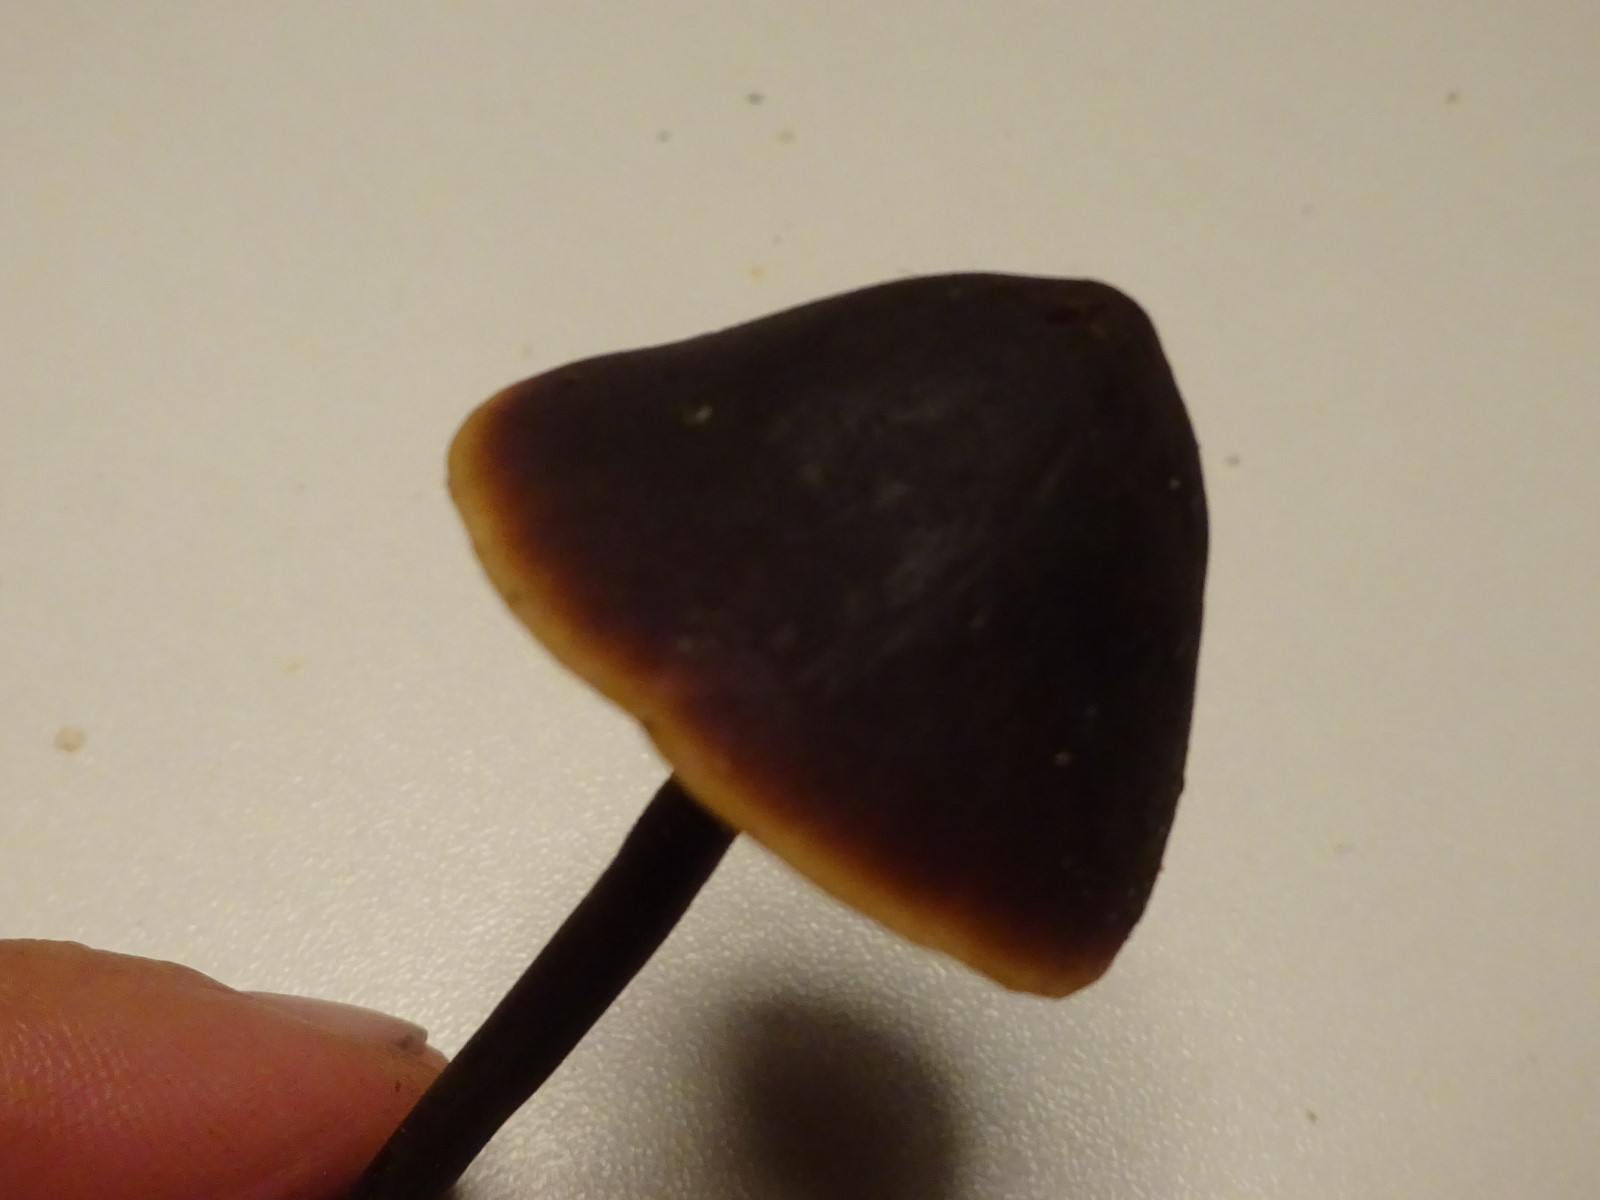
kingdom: Fungi
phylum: Basidiomycota
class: Agaricomycetes
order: Agaricales
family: Macrocystidiaceae
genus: Macrocystidia
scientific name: Macrocystidia cucumis
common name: agurkehat
